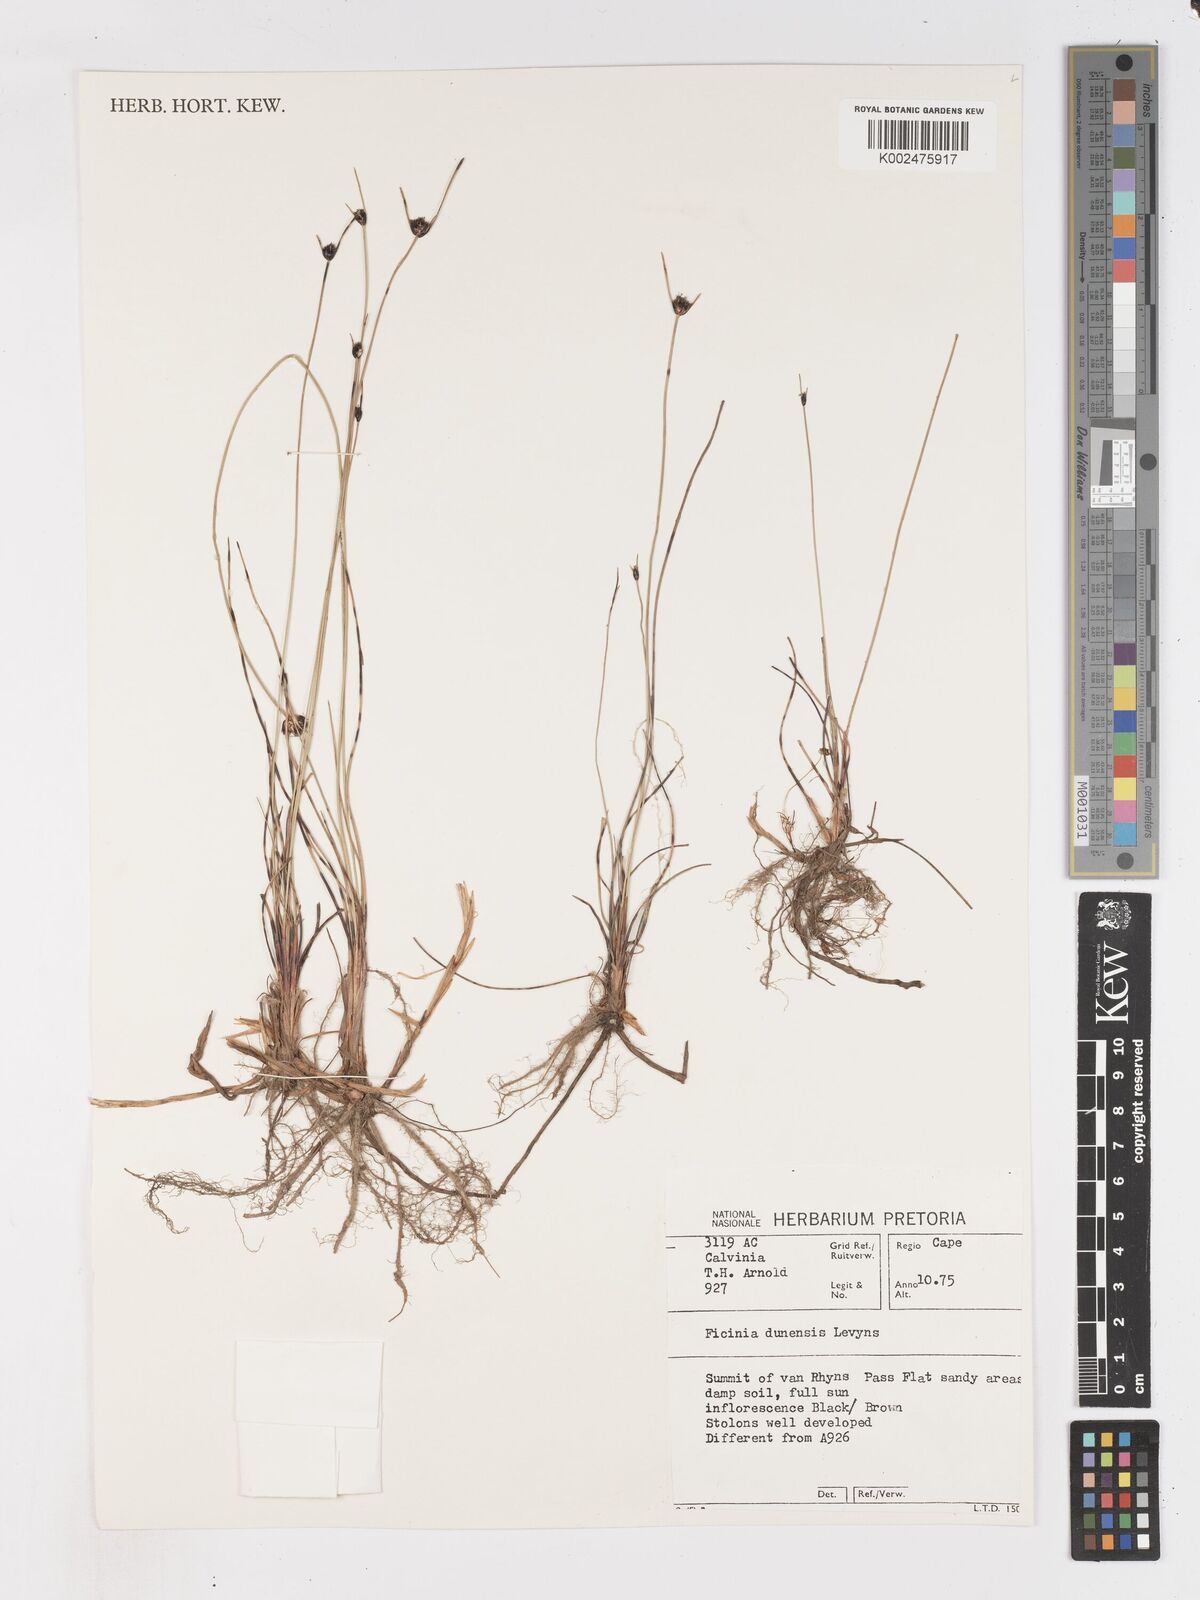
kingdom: Plantae
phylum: Tracheophyta
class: Liliopsida
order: Poales
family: Cyperaceae
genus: Ficinia
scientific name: Ficinia dunensis
